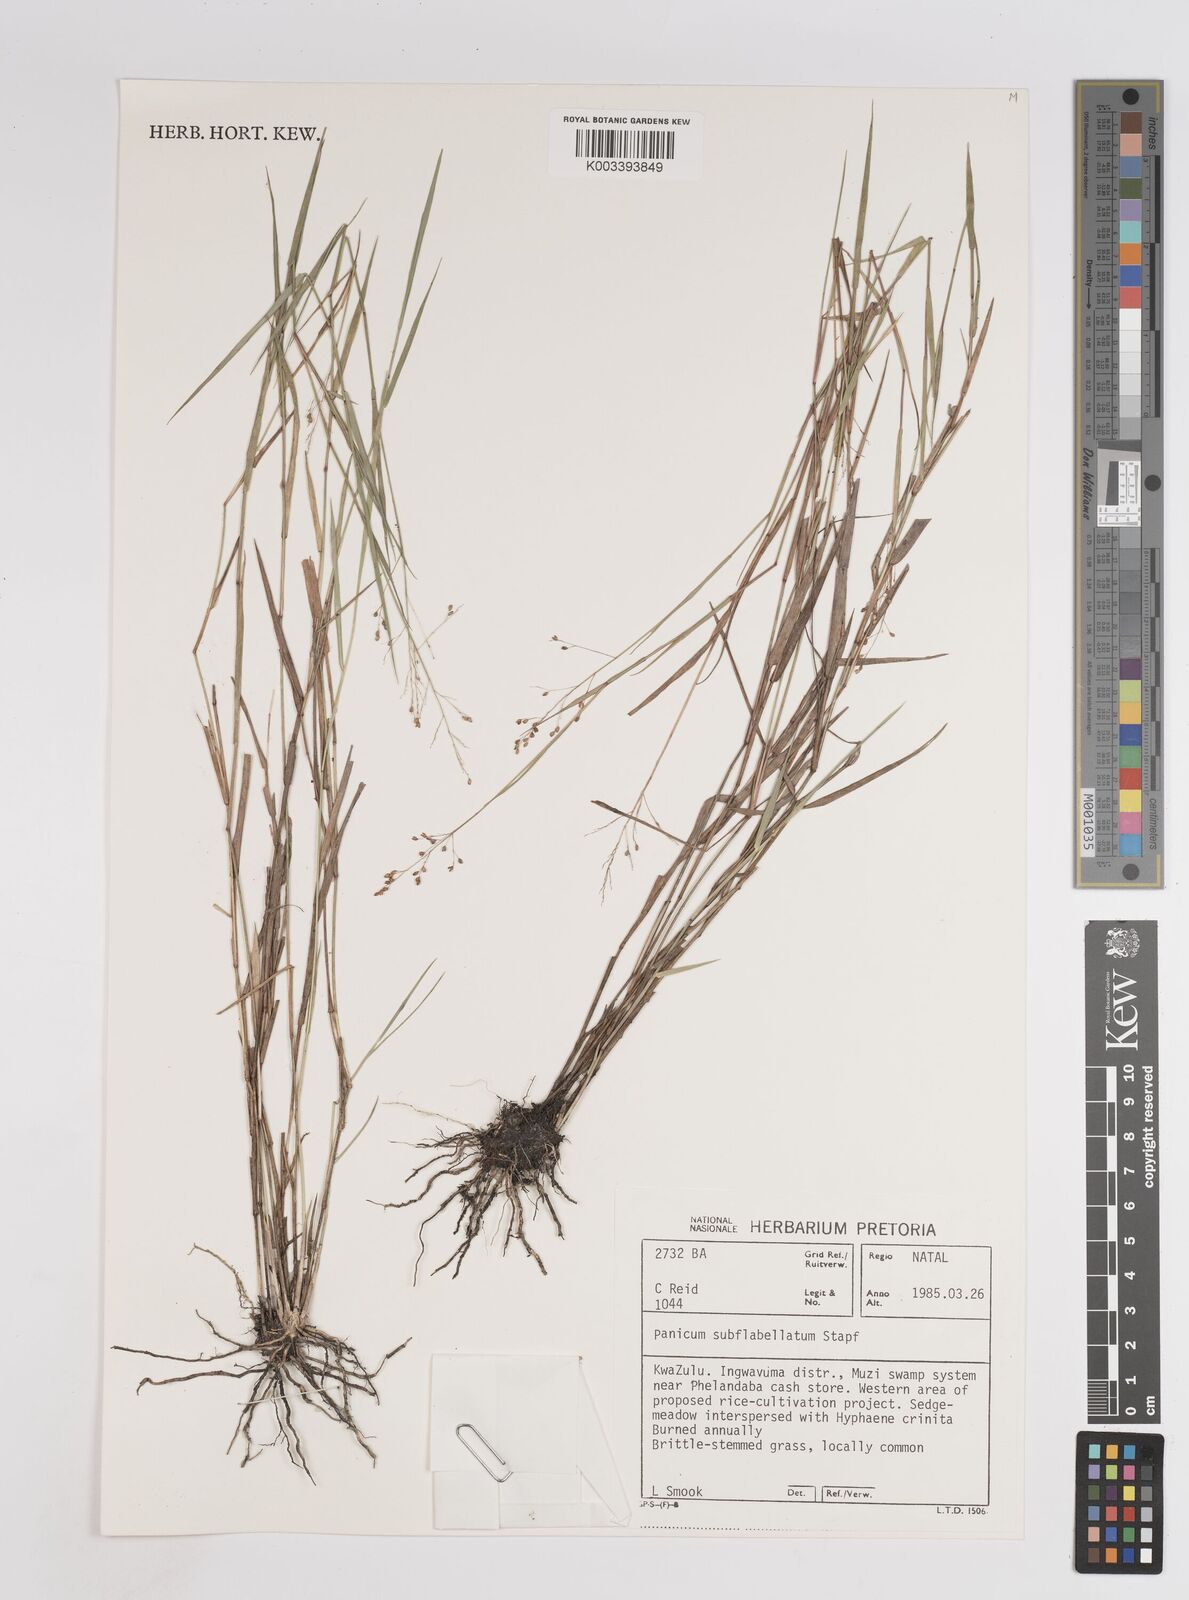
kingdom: Plantae
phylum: Tracheophyta
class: Liliopsida
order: Poales
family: Poaceae
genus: Panicum
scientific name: Panicum subflabellatum
